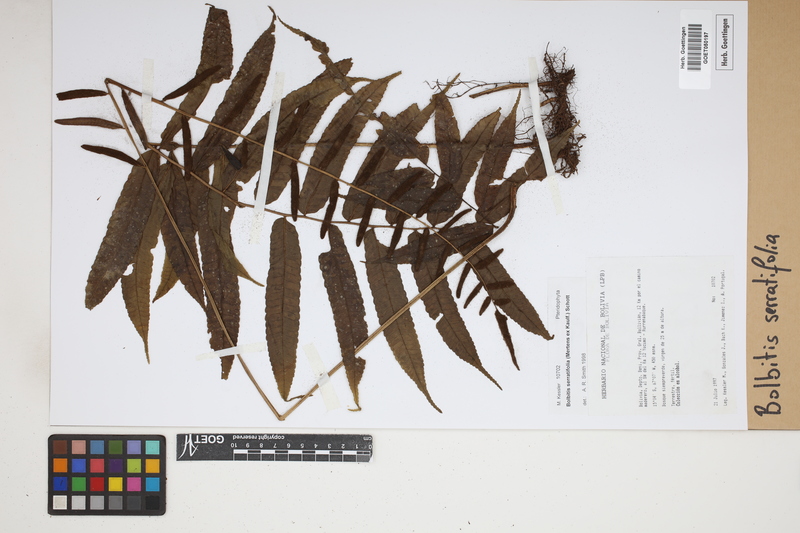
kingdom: Plantae
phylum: Tracheophyta
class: Polypodiopsida
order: Polypodiales
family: Dryopteridaceae
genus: Bolbitis
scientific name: Bolbitis serratifolia
